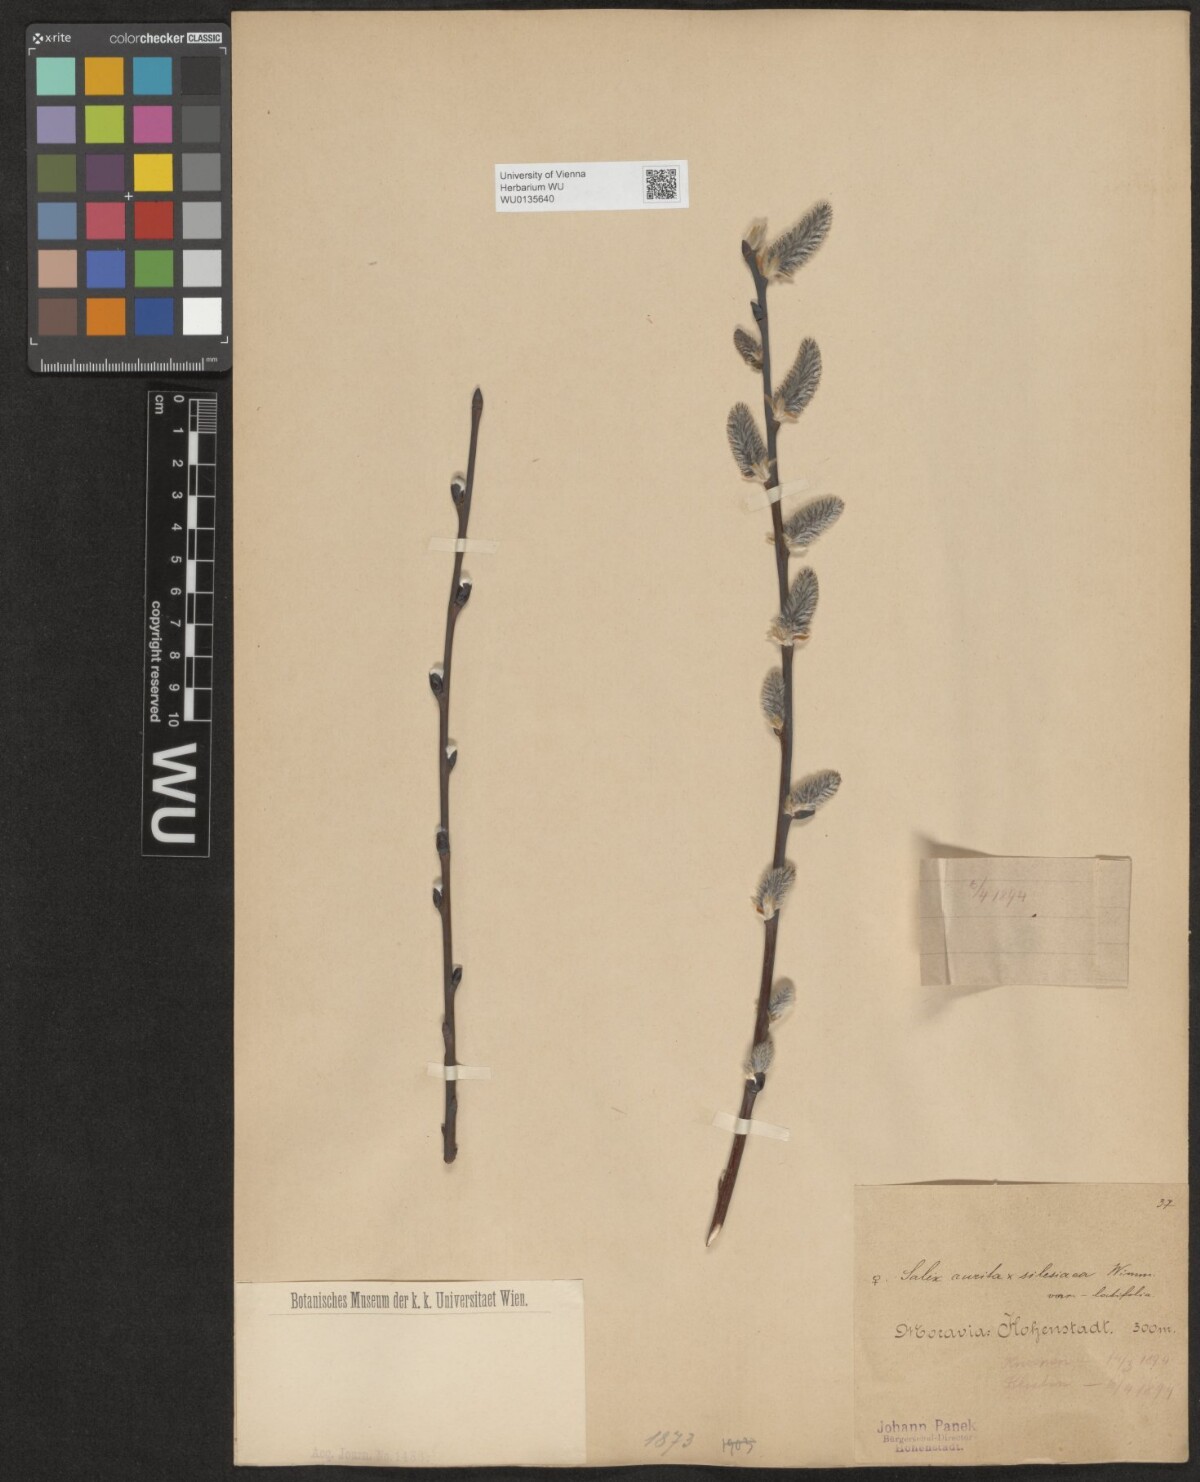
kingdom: Plantae
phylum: Tracheophyta
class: Magnoliopsida
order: Malpighiales
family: Salicaceae
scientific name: Salicaceae
